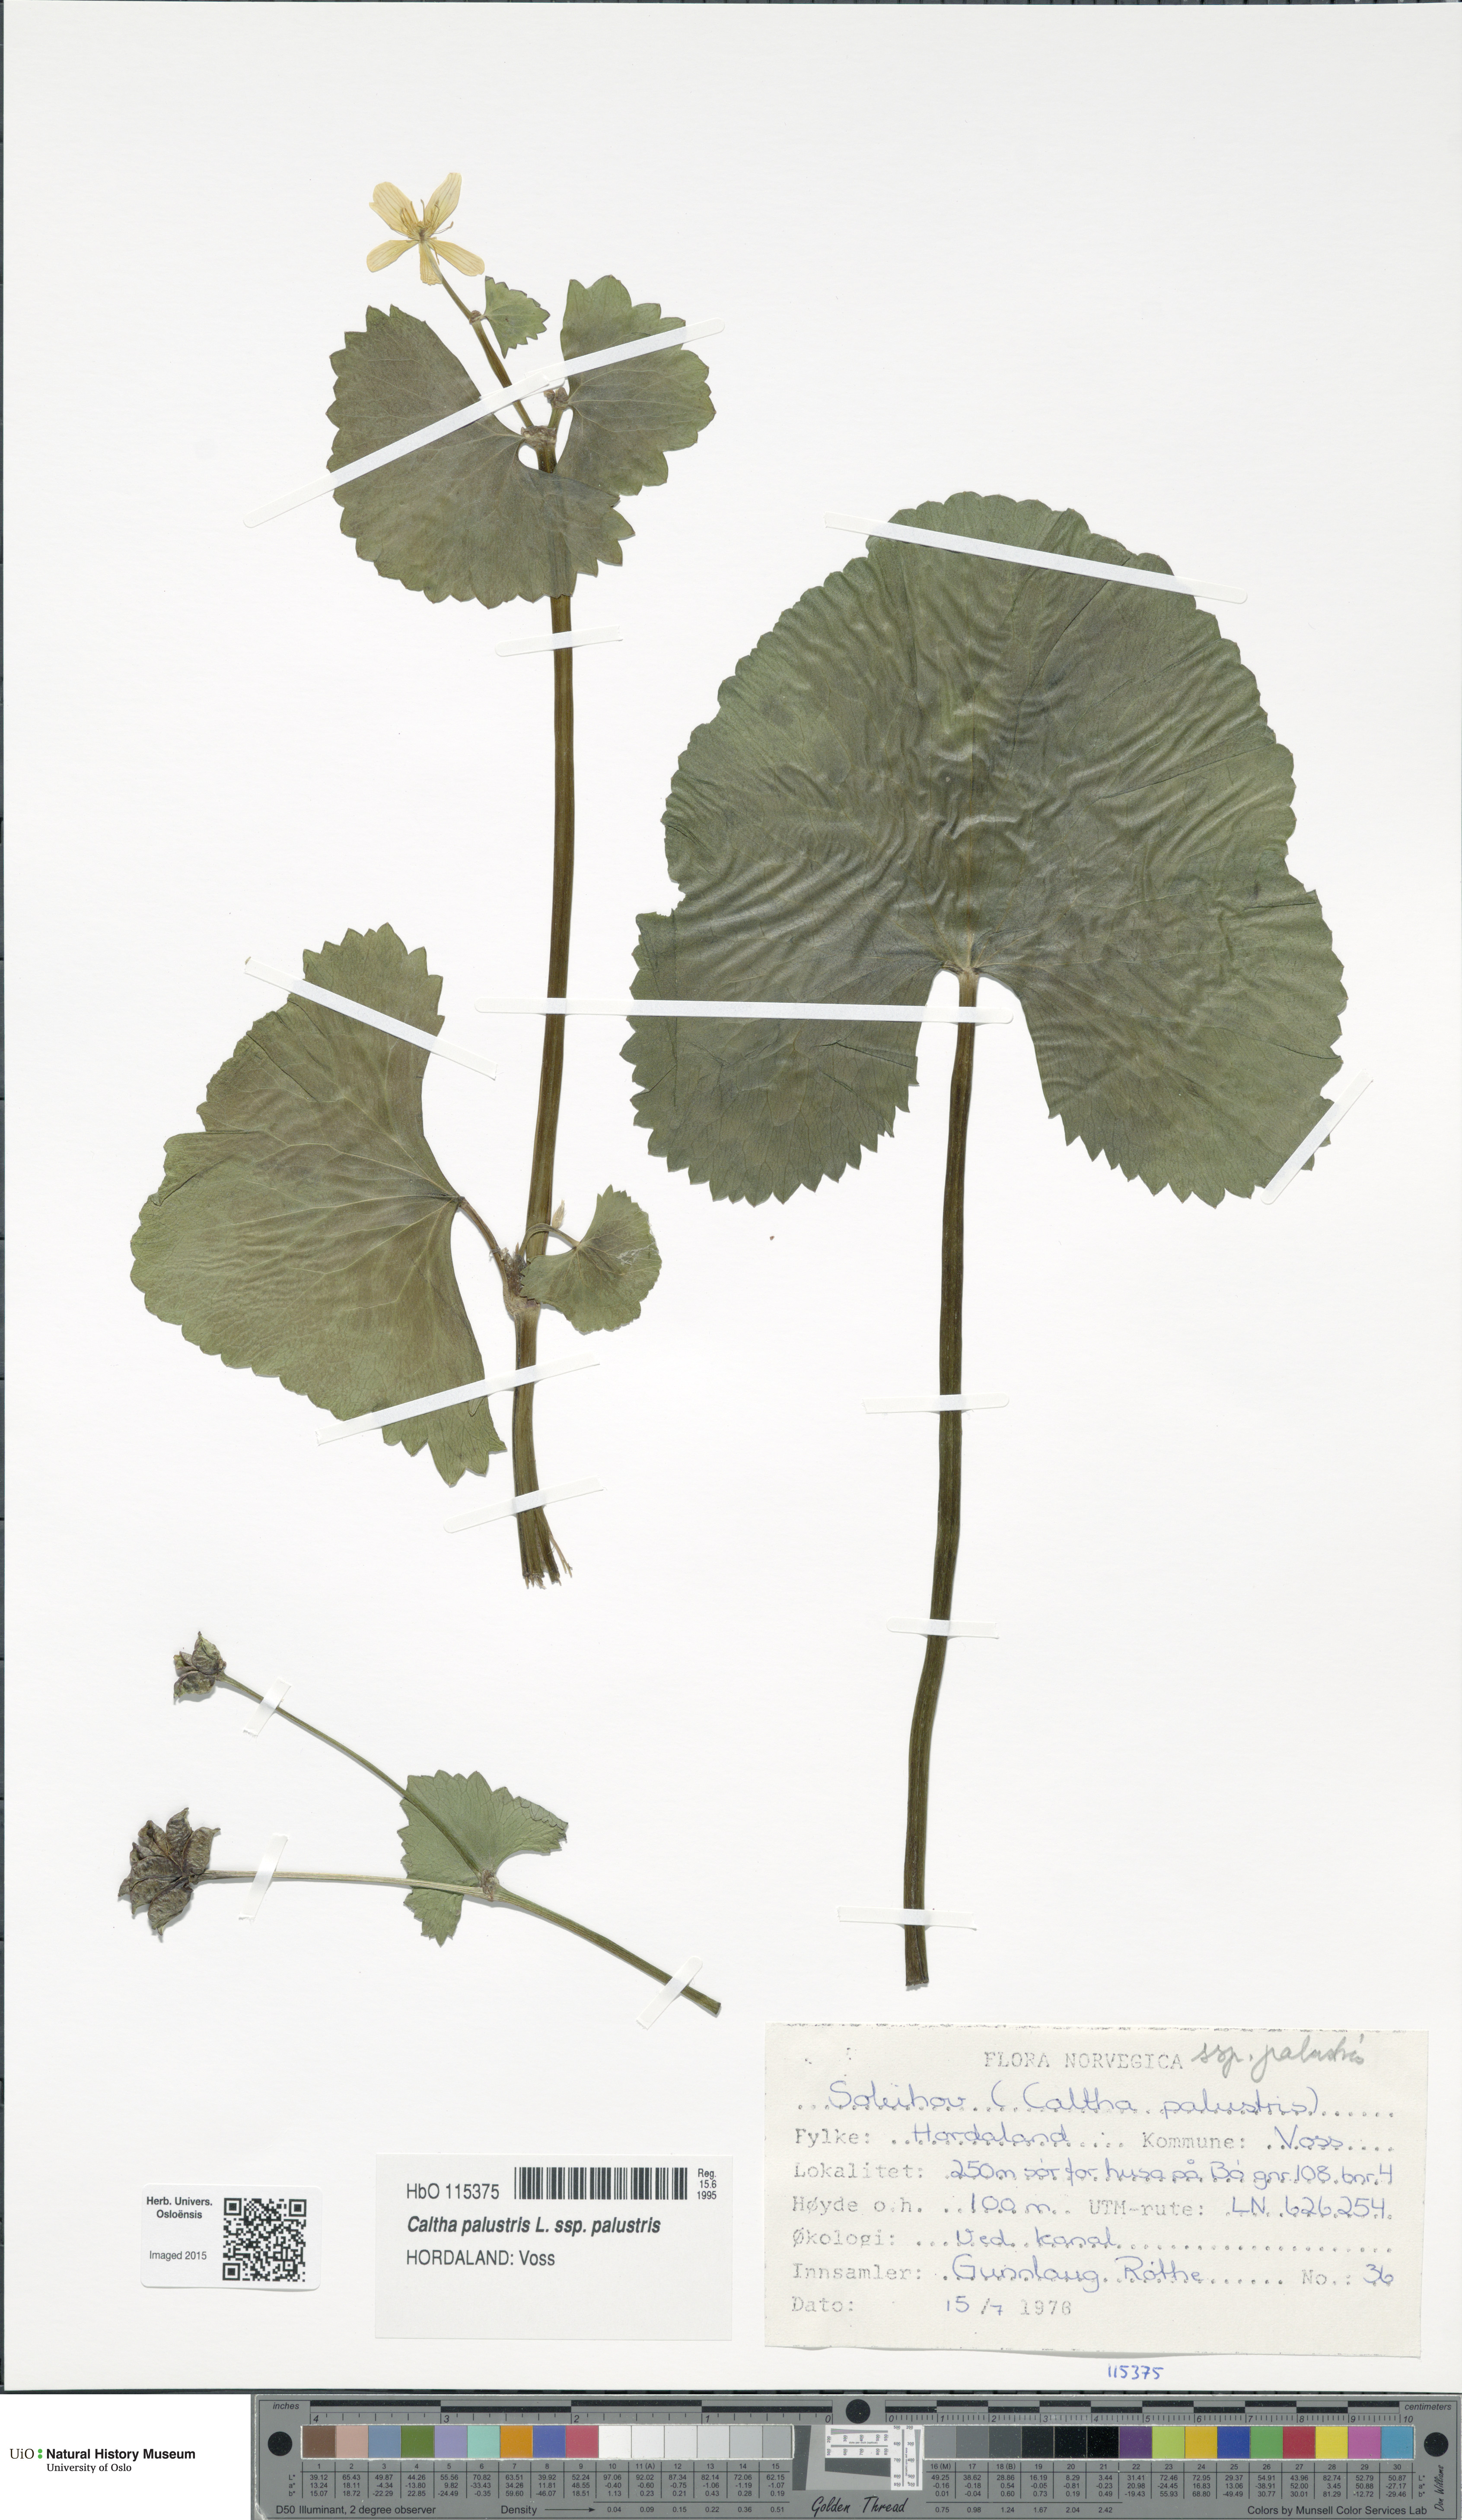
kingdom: Plantae
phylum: Tracheophyta
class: Magnoliopsida
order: Ranunculales
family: Ranunculaceae
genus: Caltha
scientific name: Caltha palustris
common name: Marsh marigold
